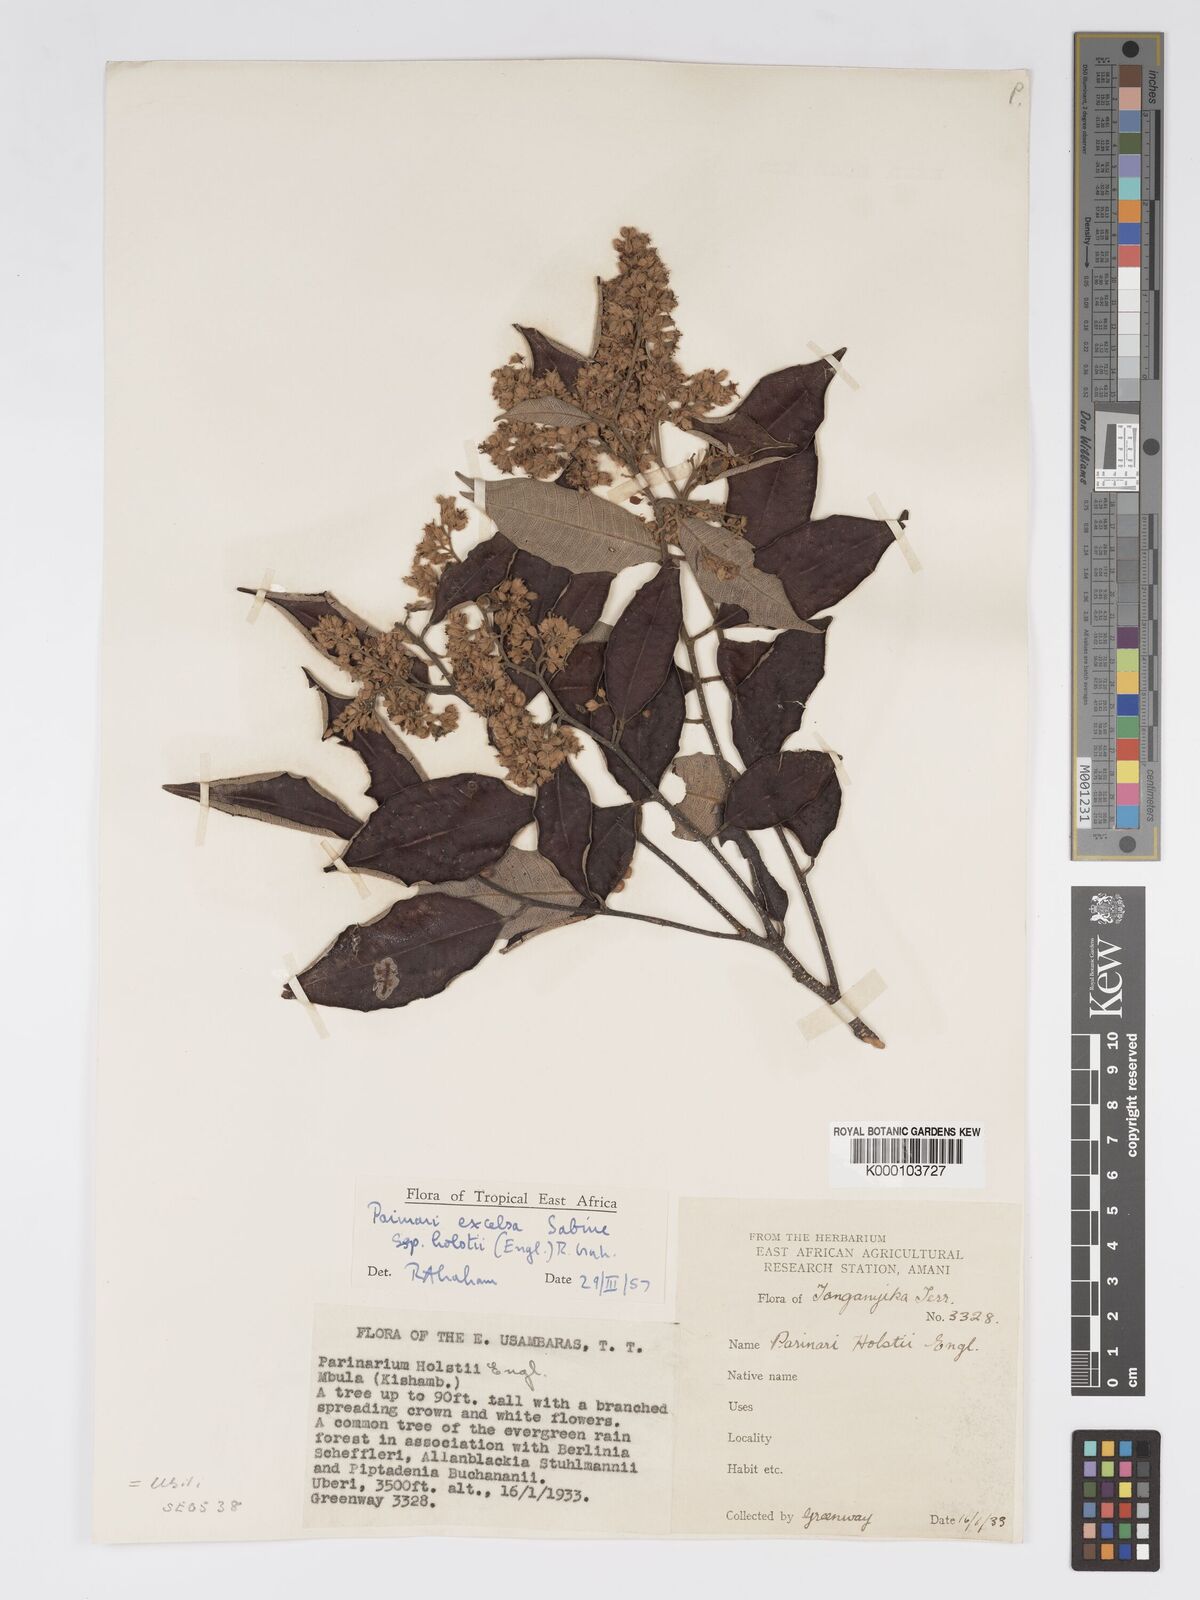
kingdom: Plantae
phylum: Tracheophyta
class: Magnoliopsida
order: Malpighiales
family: Chrysobalanaceae
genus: Parinari
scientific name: Parinari excelsa
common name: Guinea-plum
